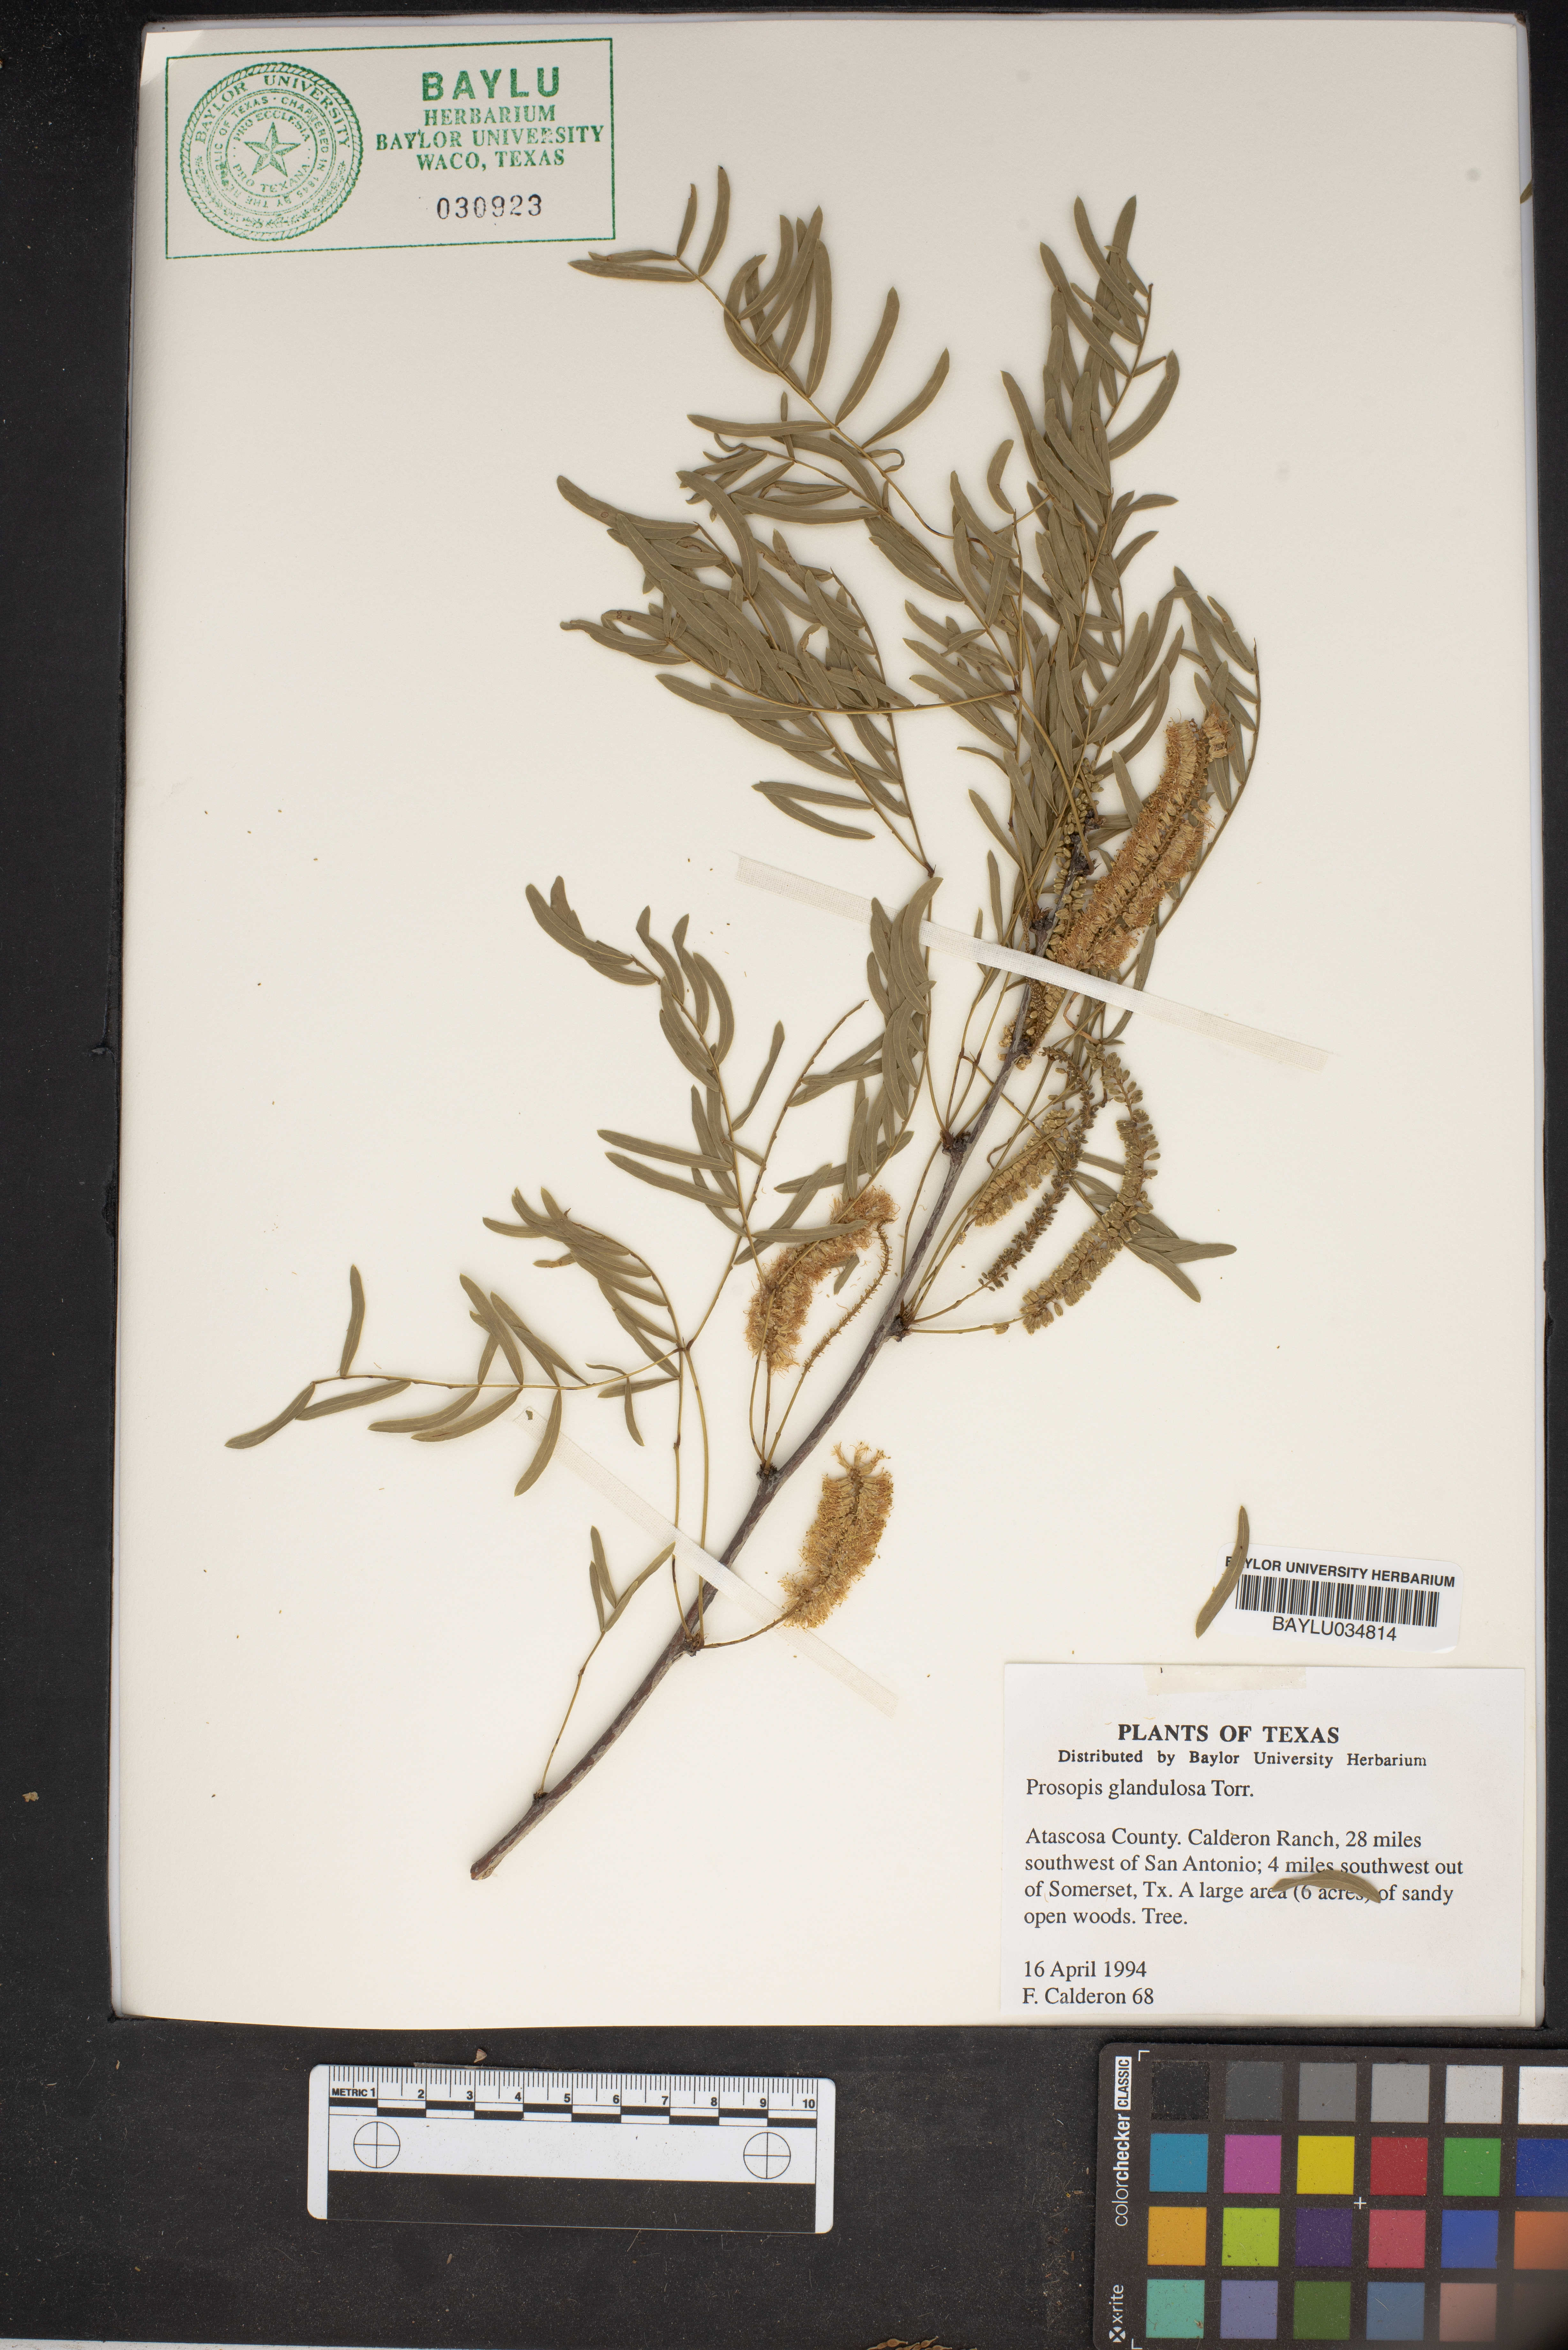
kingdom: Plantae
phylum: Tracheophyta
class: Magnoliopsida
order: Fabales
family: Fabaceae
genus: Prosopis
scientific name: Prosopis glandulosa
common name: Honey mesquite
